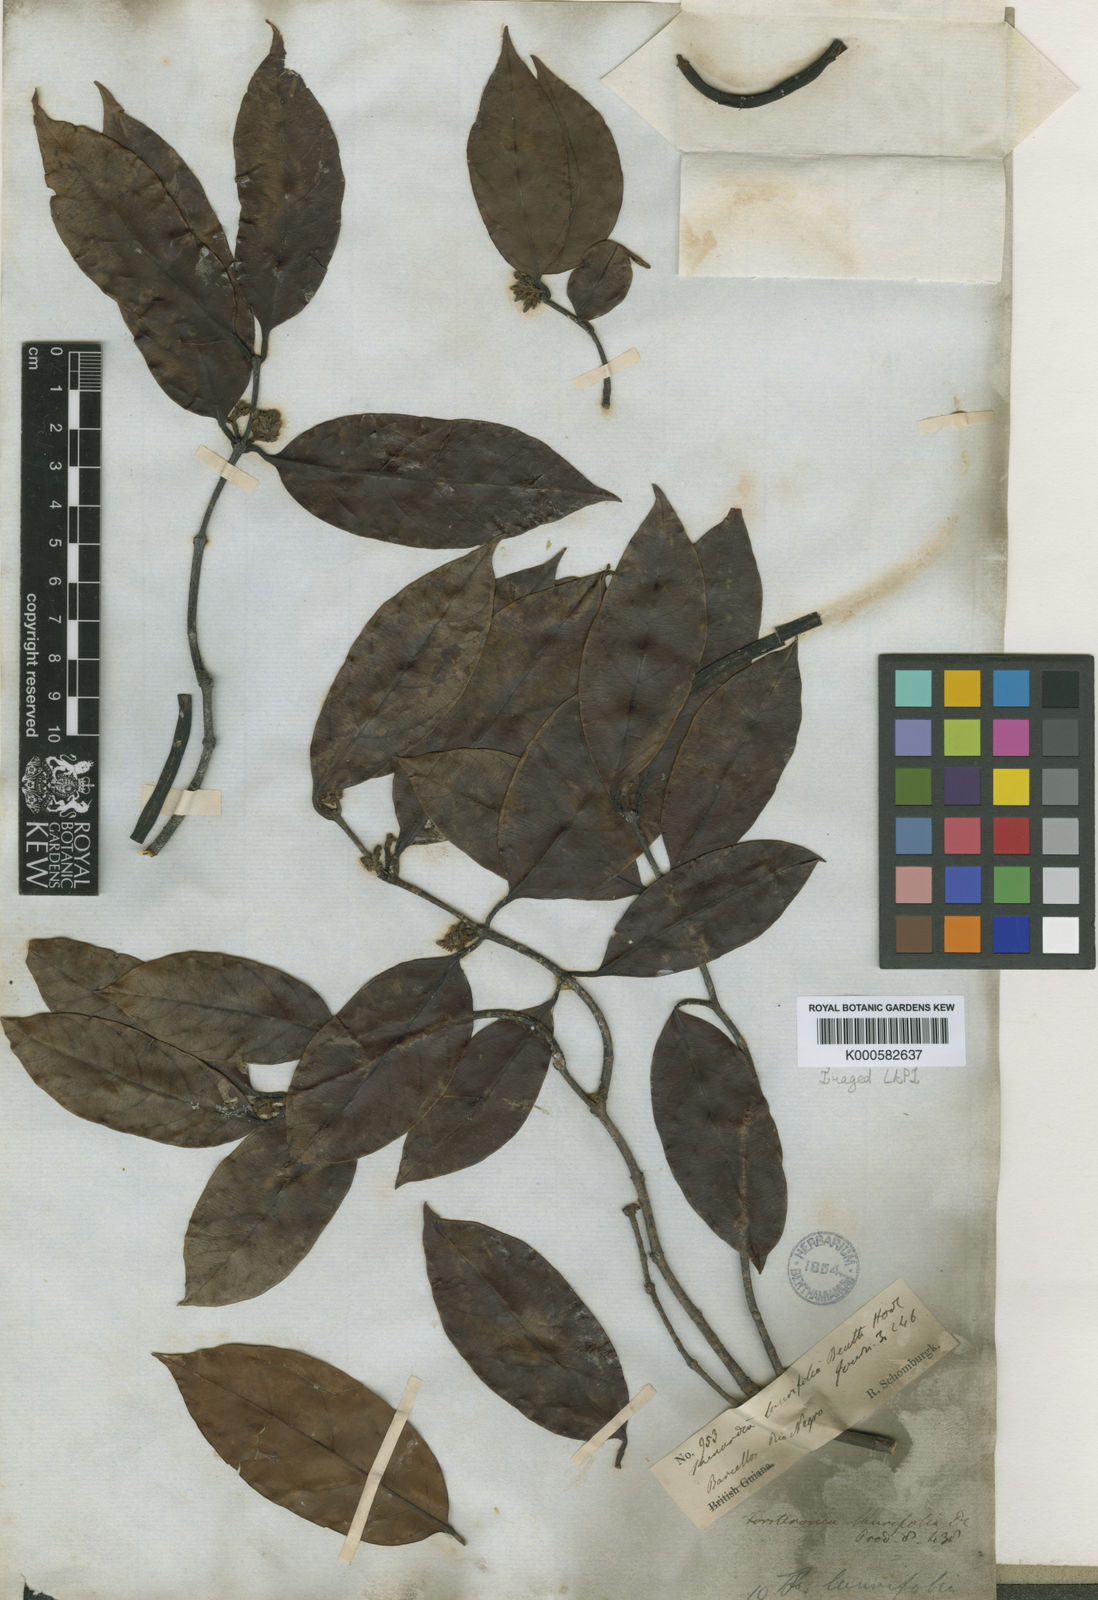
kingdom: Plantae
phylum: Tracheophyta
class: Magnoliopsida
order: Gentianales
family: Apocynaceae
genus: Forsteronia
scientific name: Forsteronia laurifolia
